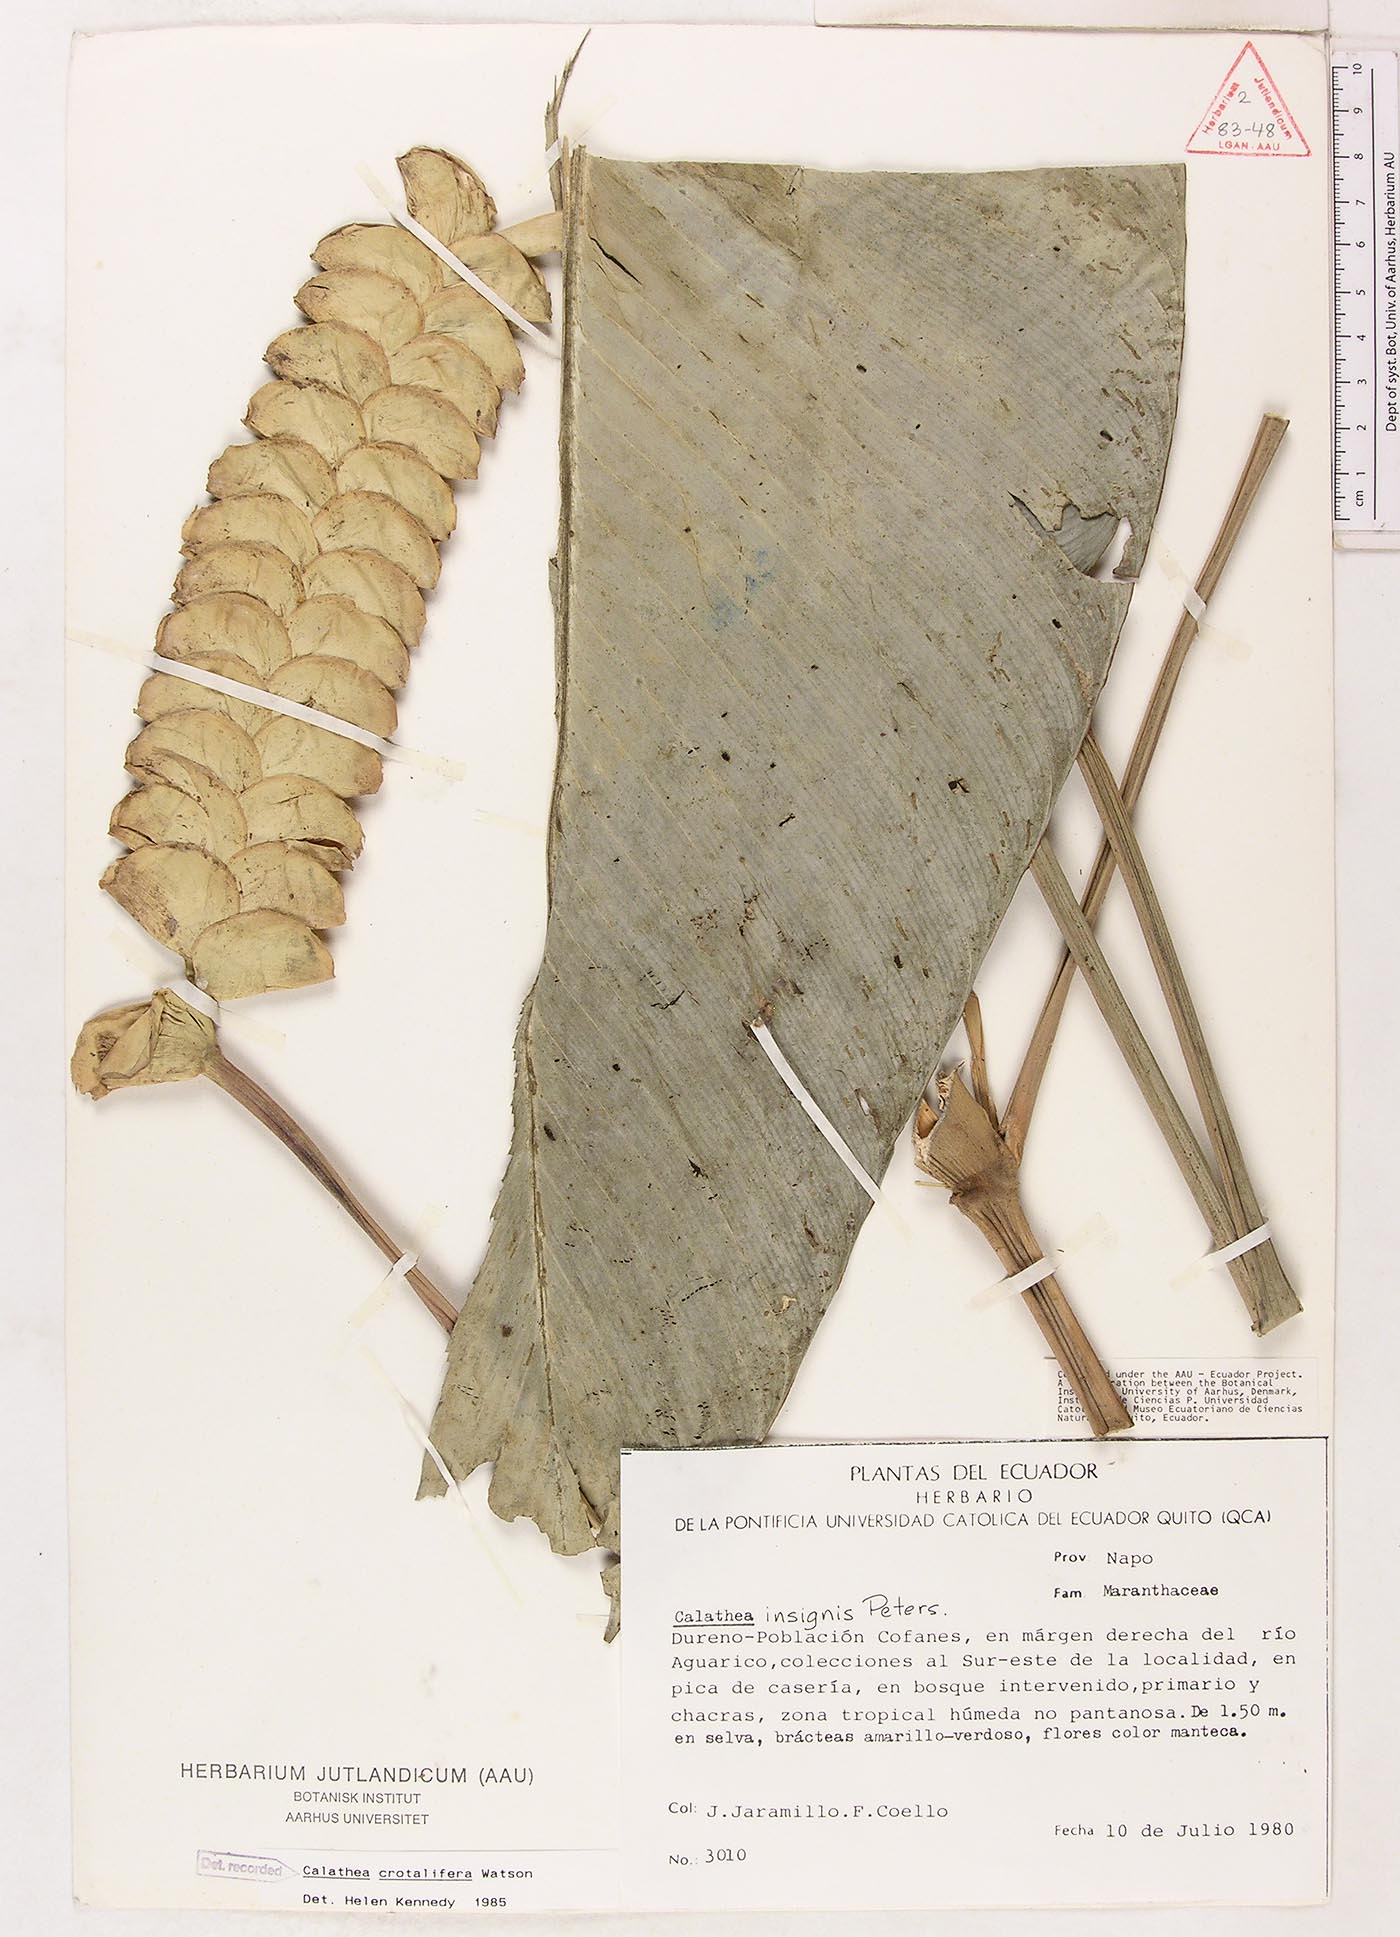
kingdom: Plantae
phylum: Tracheophyta
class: Liliopsida
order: Zingiberales
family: Marantaceae
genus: Calathea
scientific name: Calathea crotalifera
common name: Rattlesnake plant
